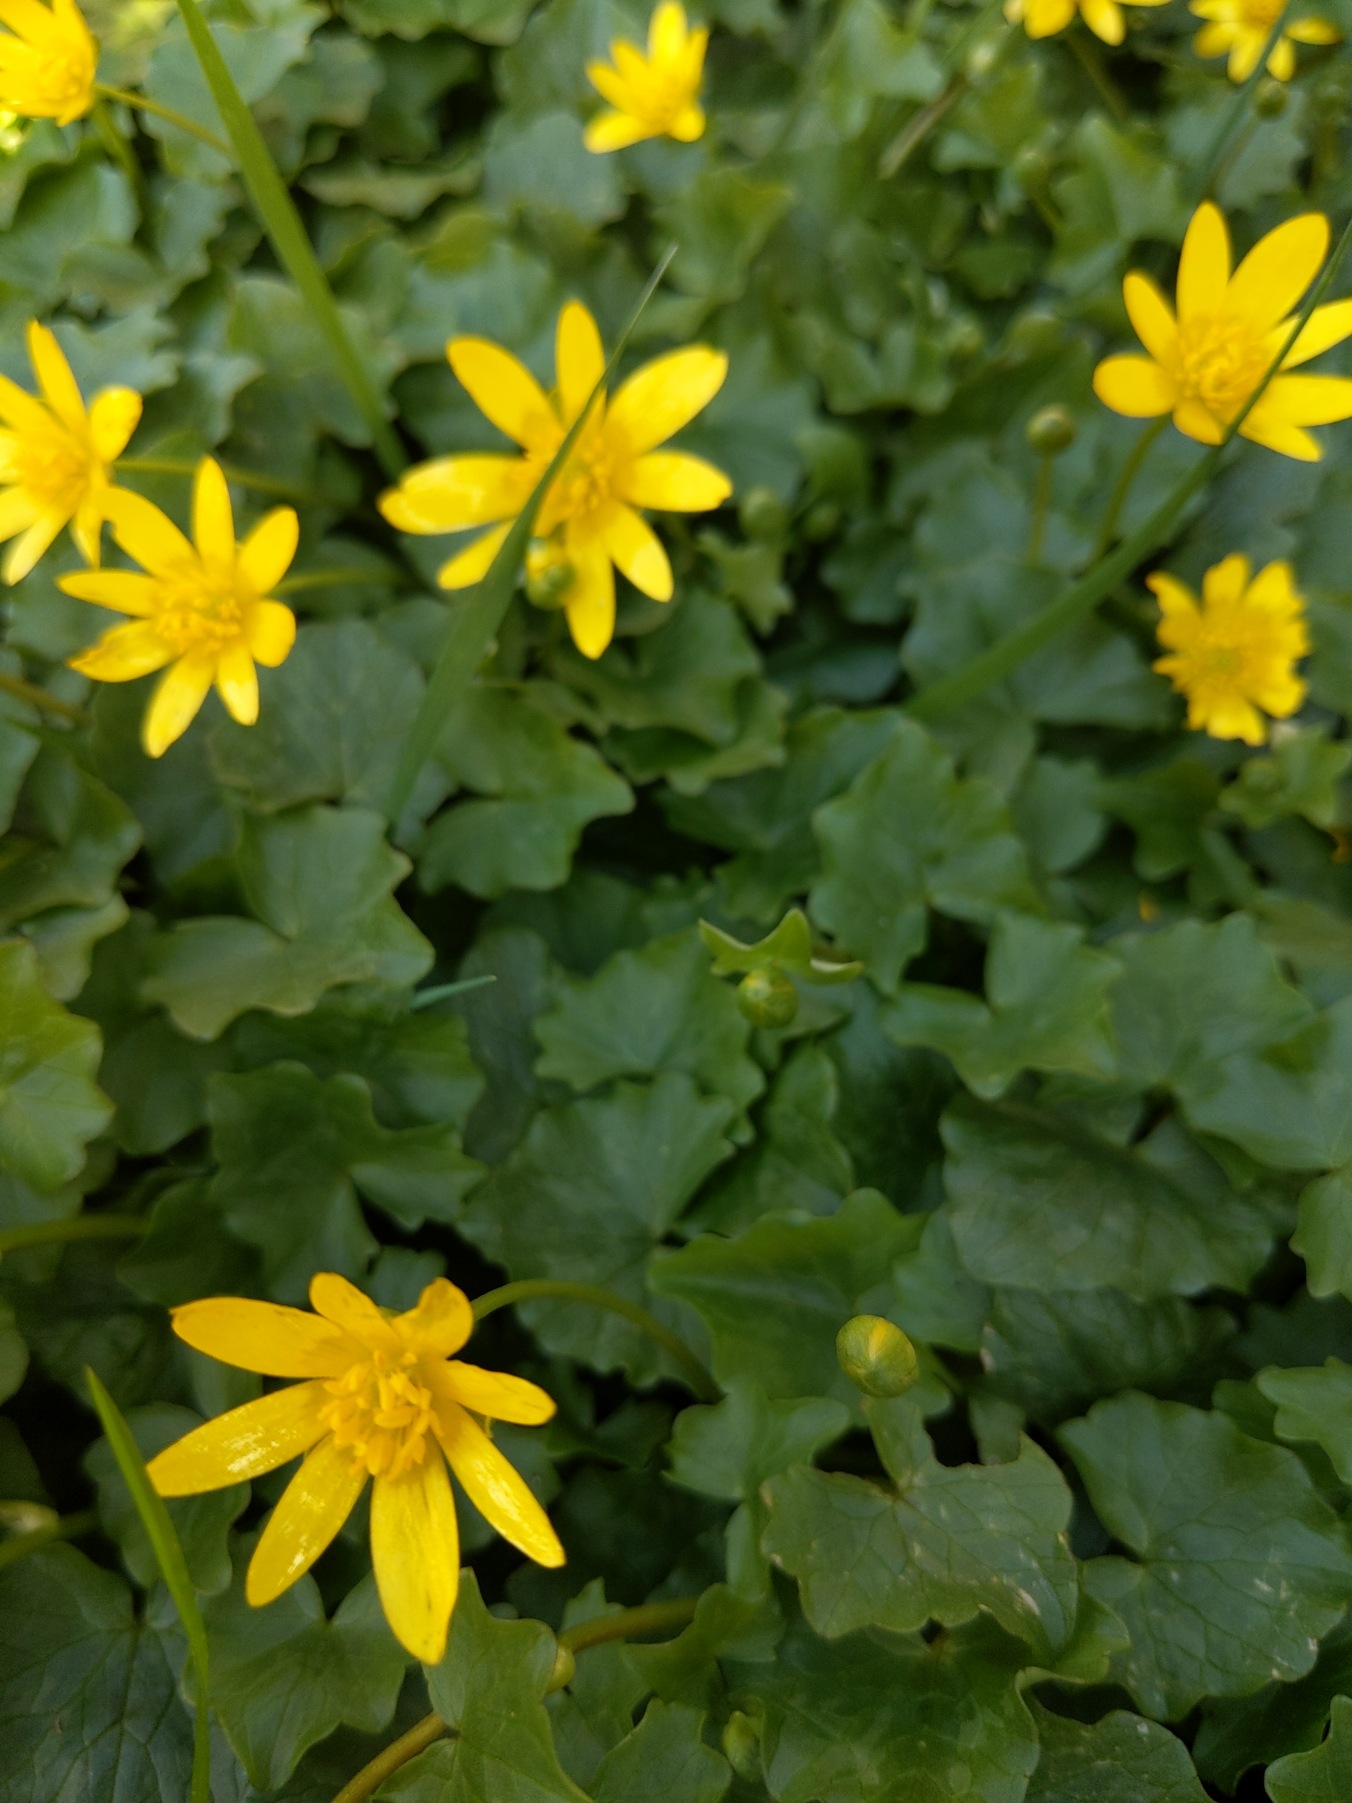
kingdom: Plantae
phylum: Tracheophyta
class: Magnoliopsida
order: Ranunculales
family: Ranunculaceae
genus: Ficaria
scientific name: Ficaria verna
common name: Vorterod
